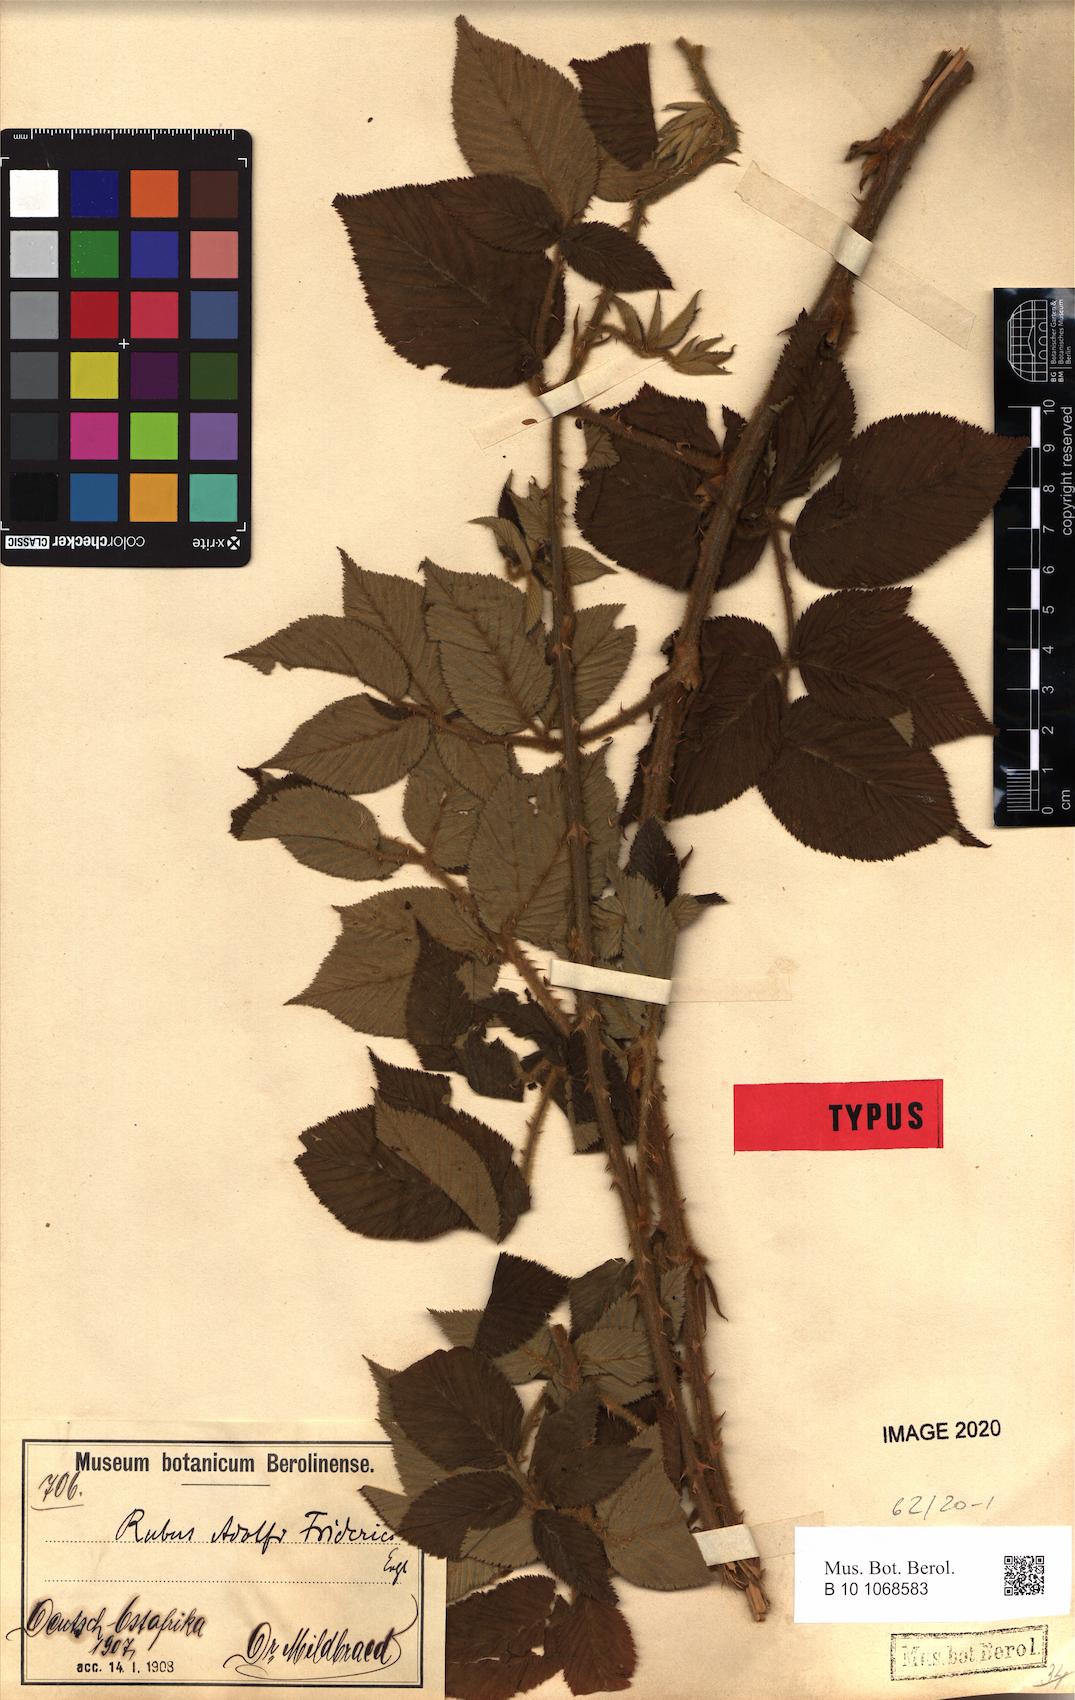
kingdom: Plantae
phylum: Tracheophyta
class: Magnoliopsida
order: Rosales
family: Rosaceae
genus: Rubus
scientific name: Rubus apetalus
